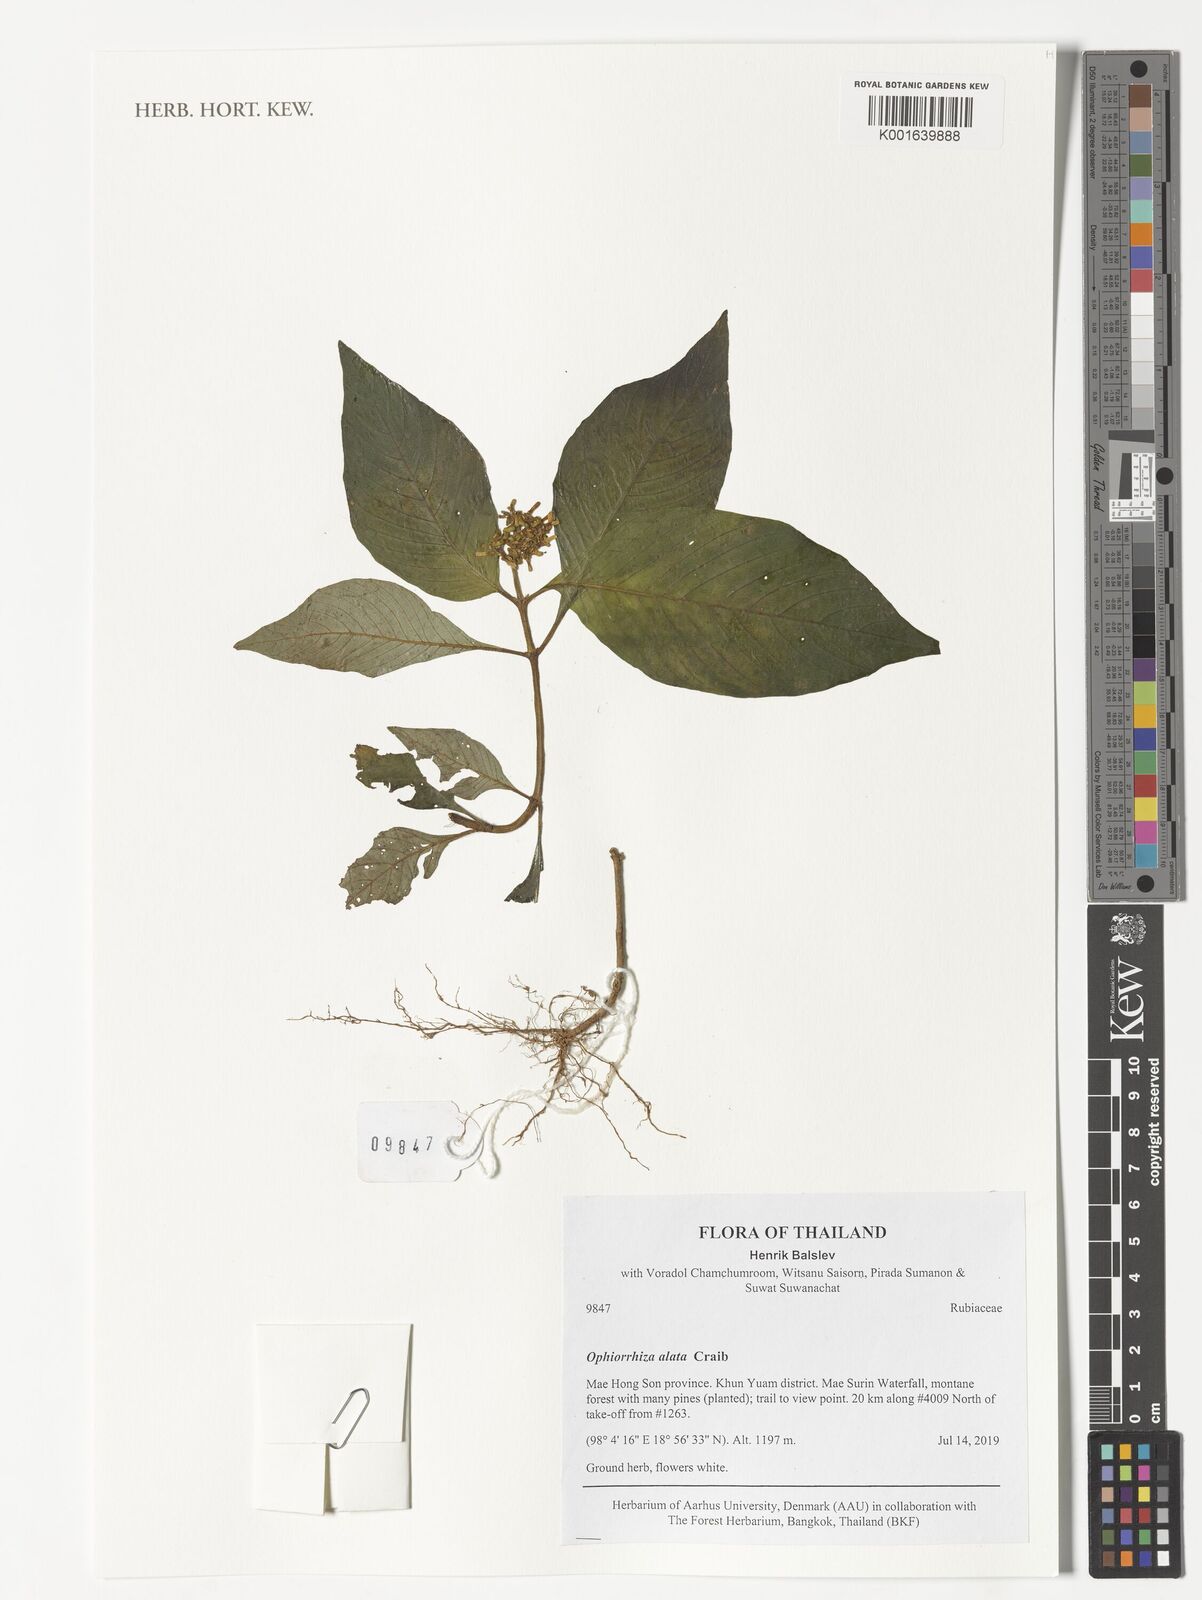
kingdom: Plantae
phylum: Tracheophyta
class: Magnoliopsida
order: Gentianales
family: Rubiaceae
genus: Ophiorrhiza
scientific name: Ophiorrhiza alata
